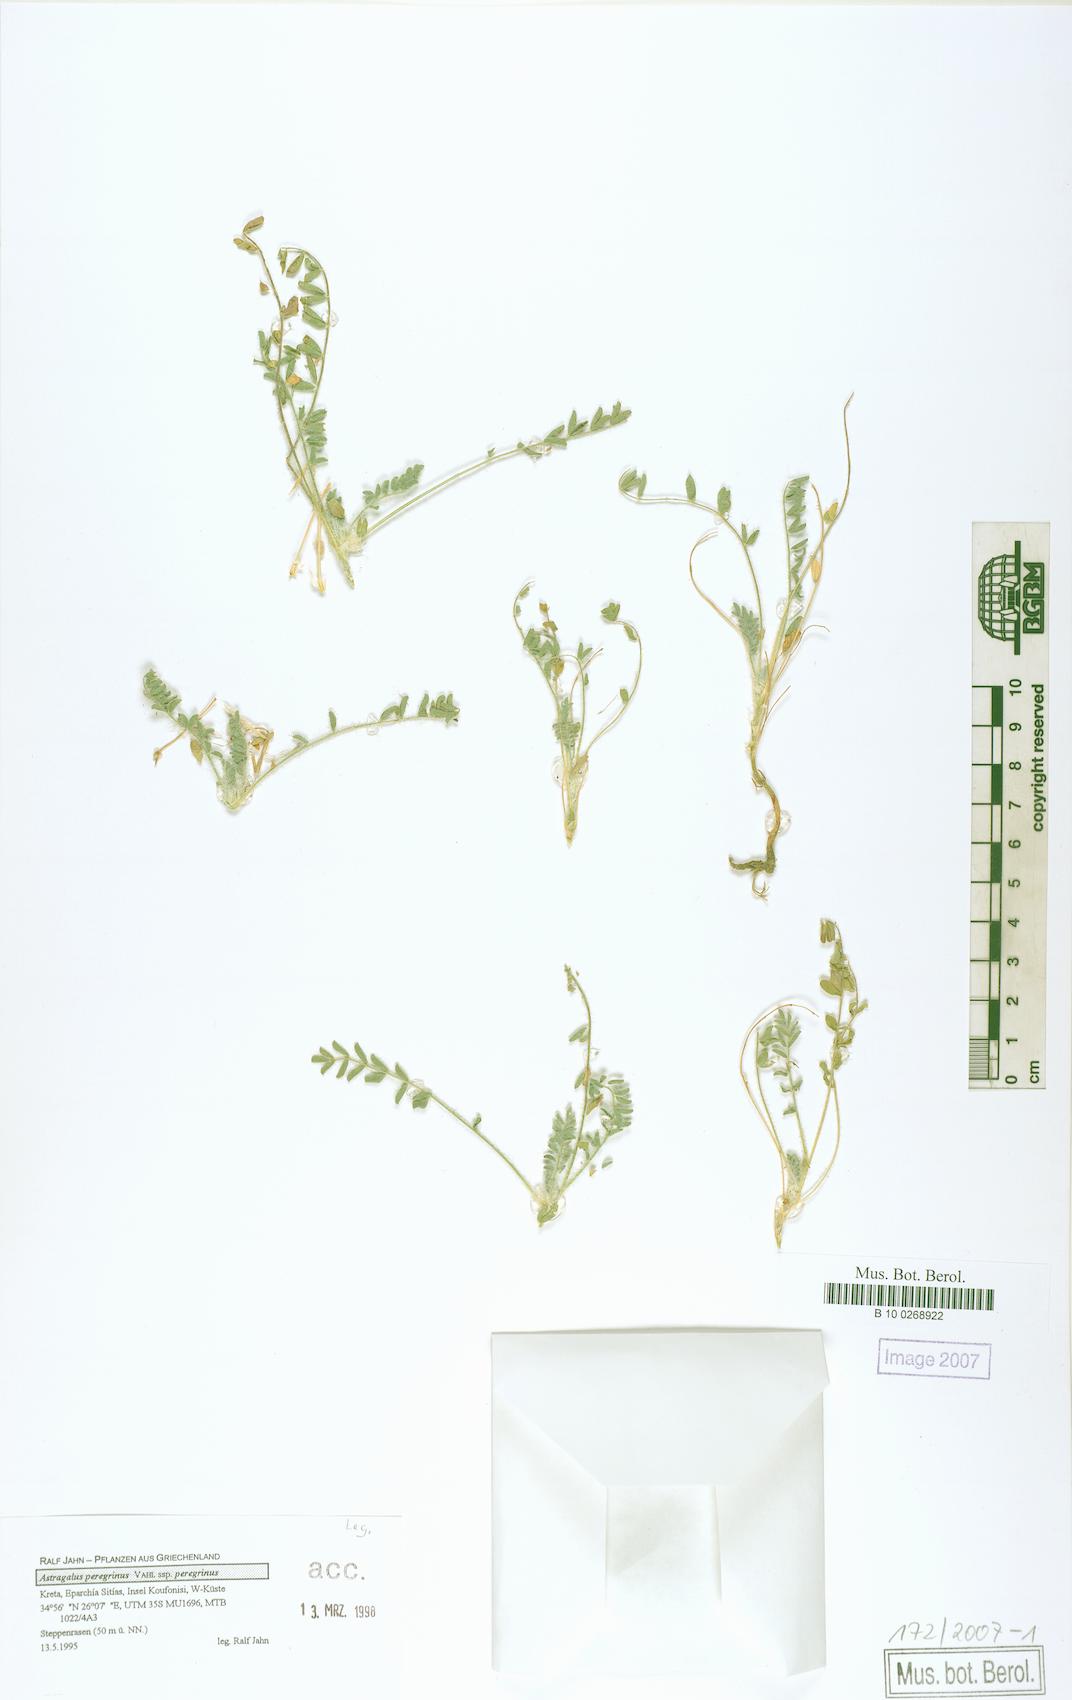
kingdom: Plantae
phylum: Tracheophyta
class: Magnoliopsida
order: Fabales
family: Fabaceae
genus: Astragalus
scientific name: Astragalus peregrinus
